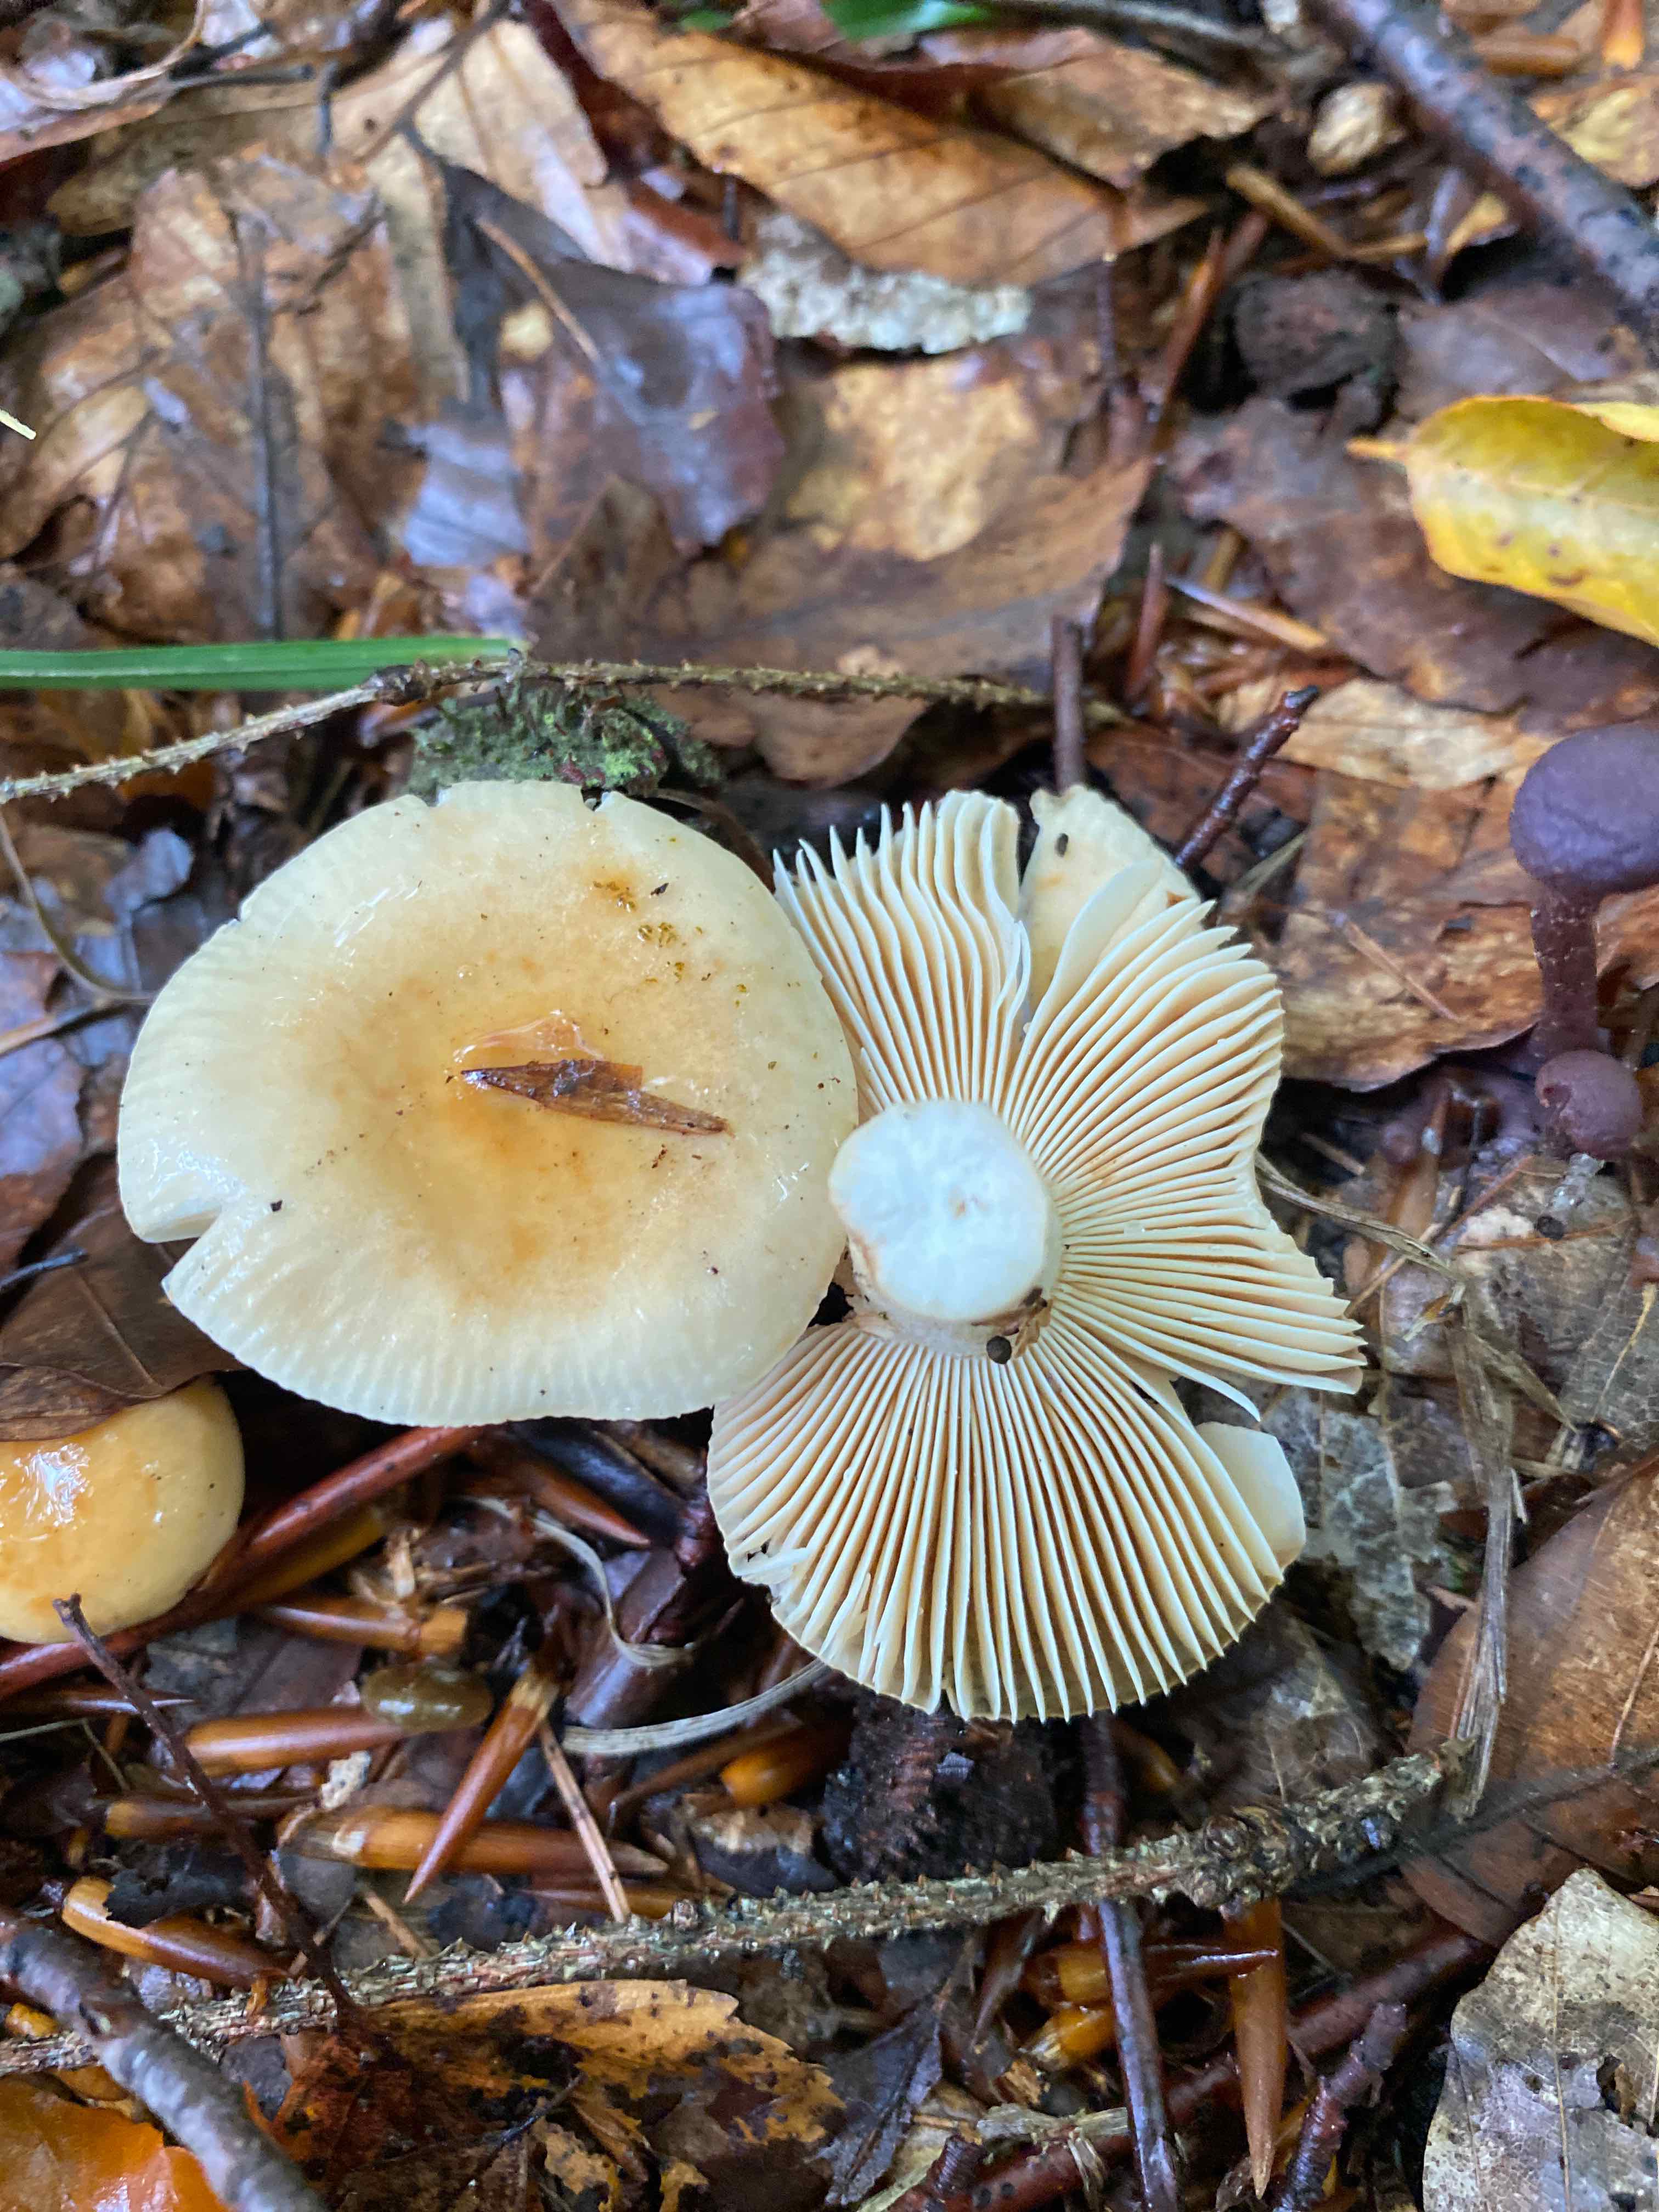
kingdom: Fungi
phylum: Basidiomycota
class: Agaricomycetes
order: Russulales
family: Russulaceae
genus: Russula
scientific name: Russula fellea
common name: galde-skørhat
